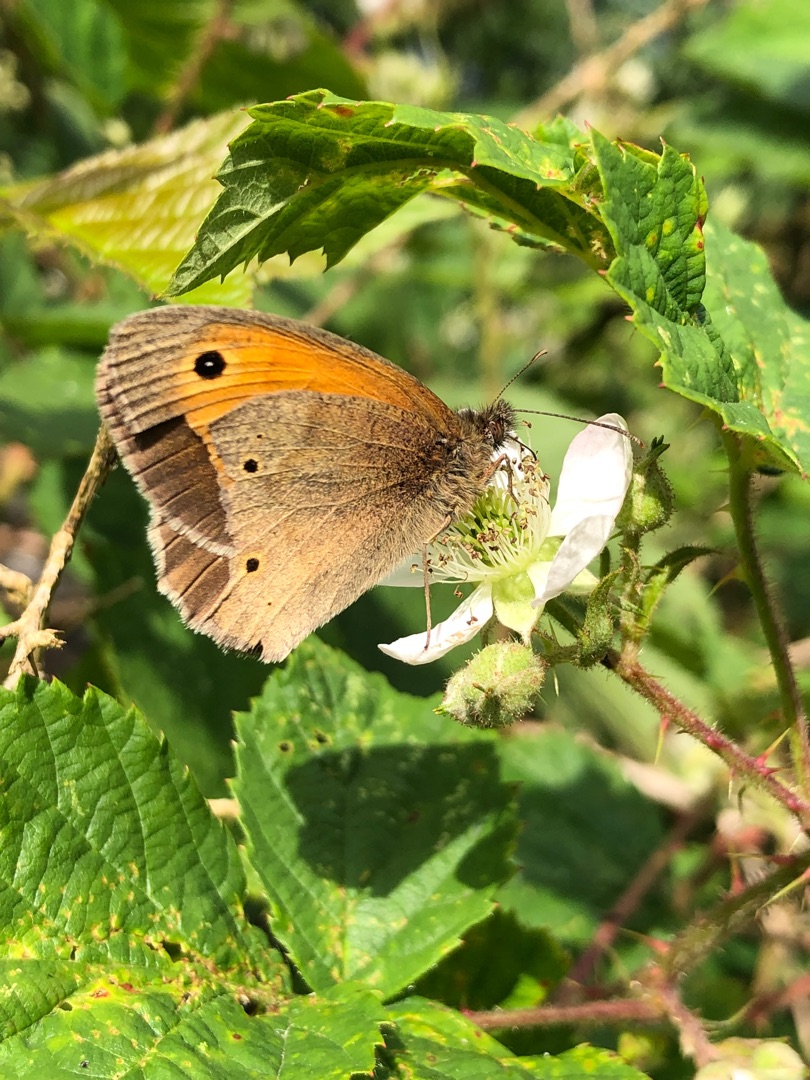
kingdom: Animalia
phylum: Arthropoda
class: Insecta
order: Lepidoptera
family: Nymphalidae
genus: Maniola
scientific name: Maniola jurtina
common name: Græsrandøje
